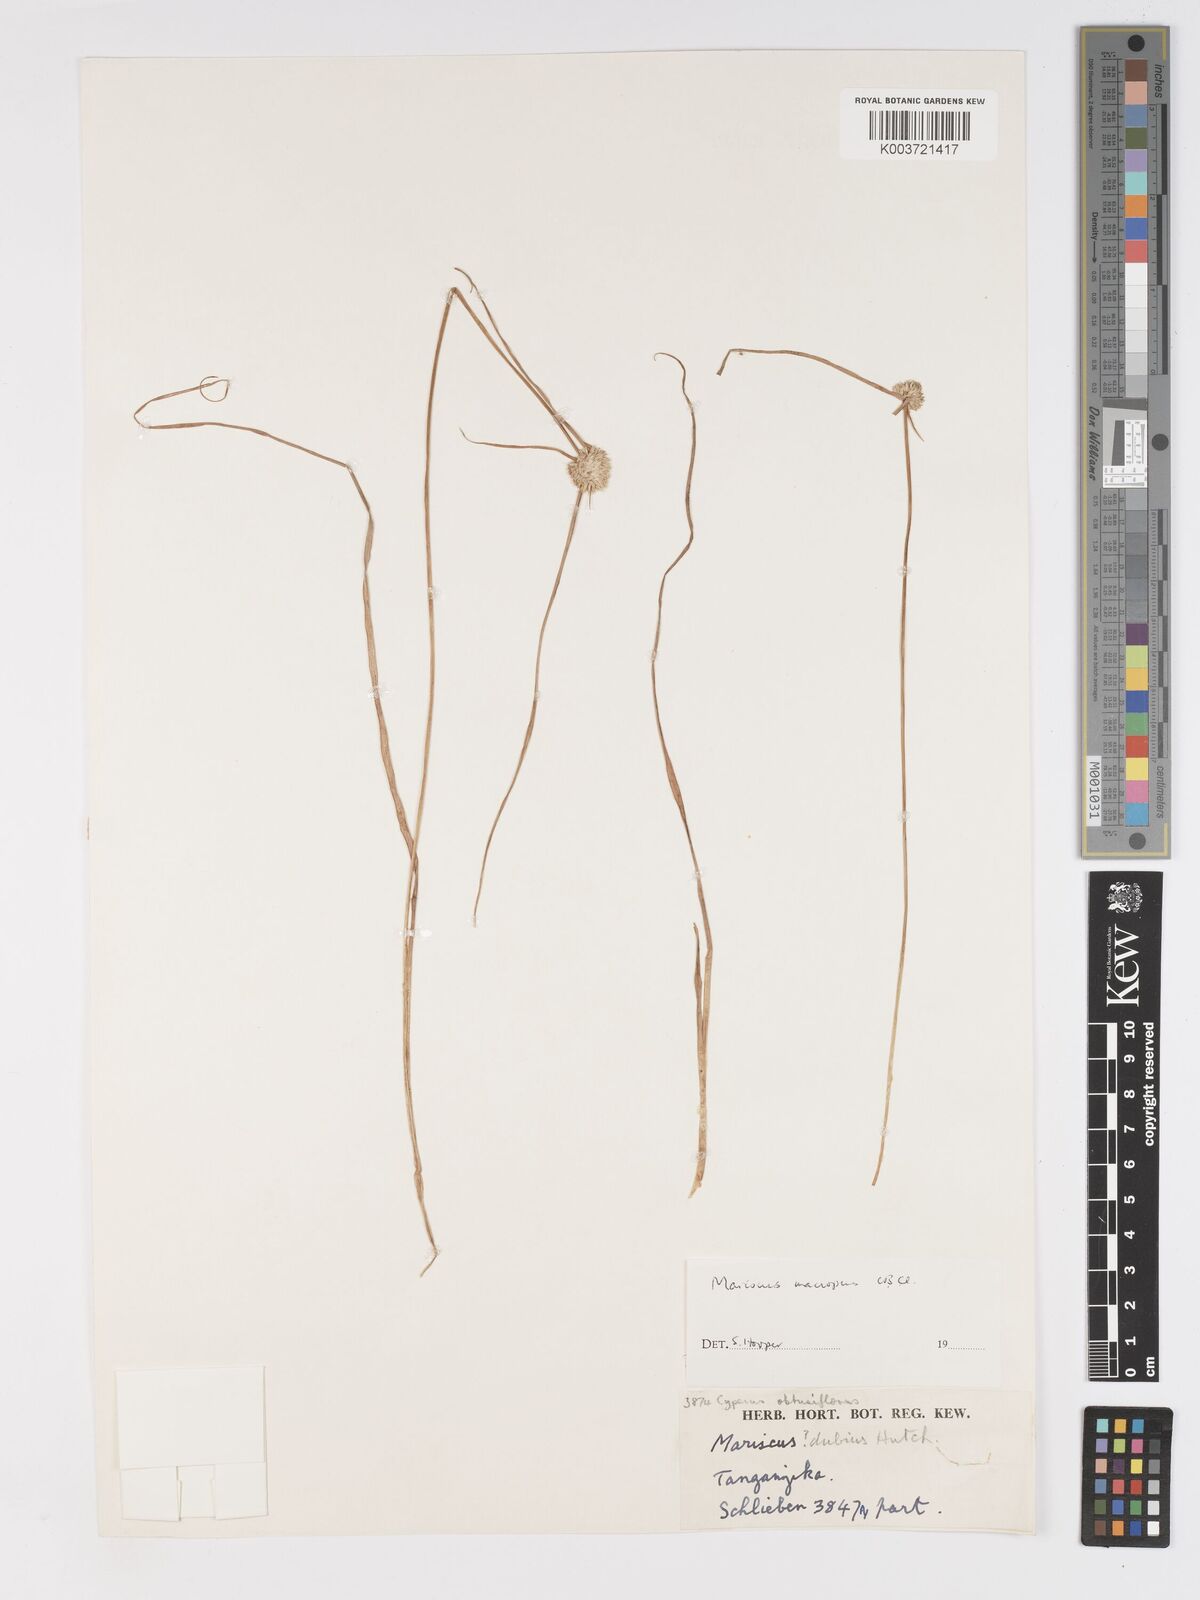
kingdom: Plantae
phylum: Tracheophyta
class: Liliopsida
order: Poales
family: Cyperaceae
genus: Cyperus
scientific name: Cyperus mollipes
